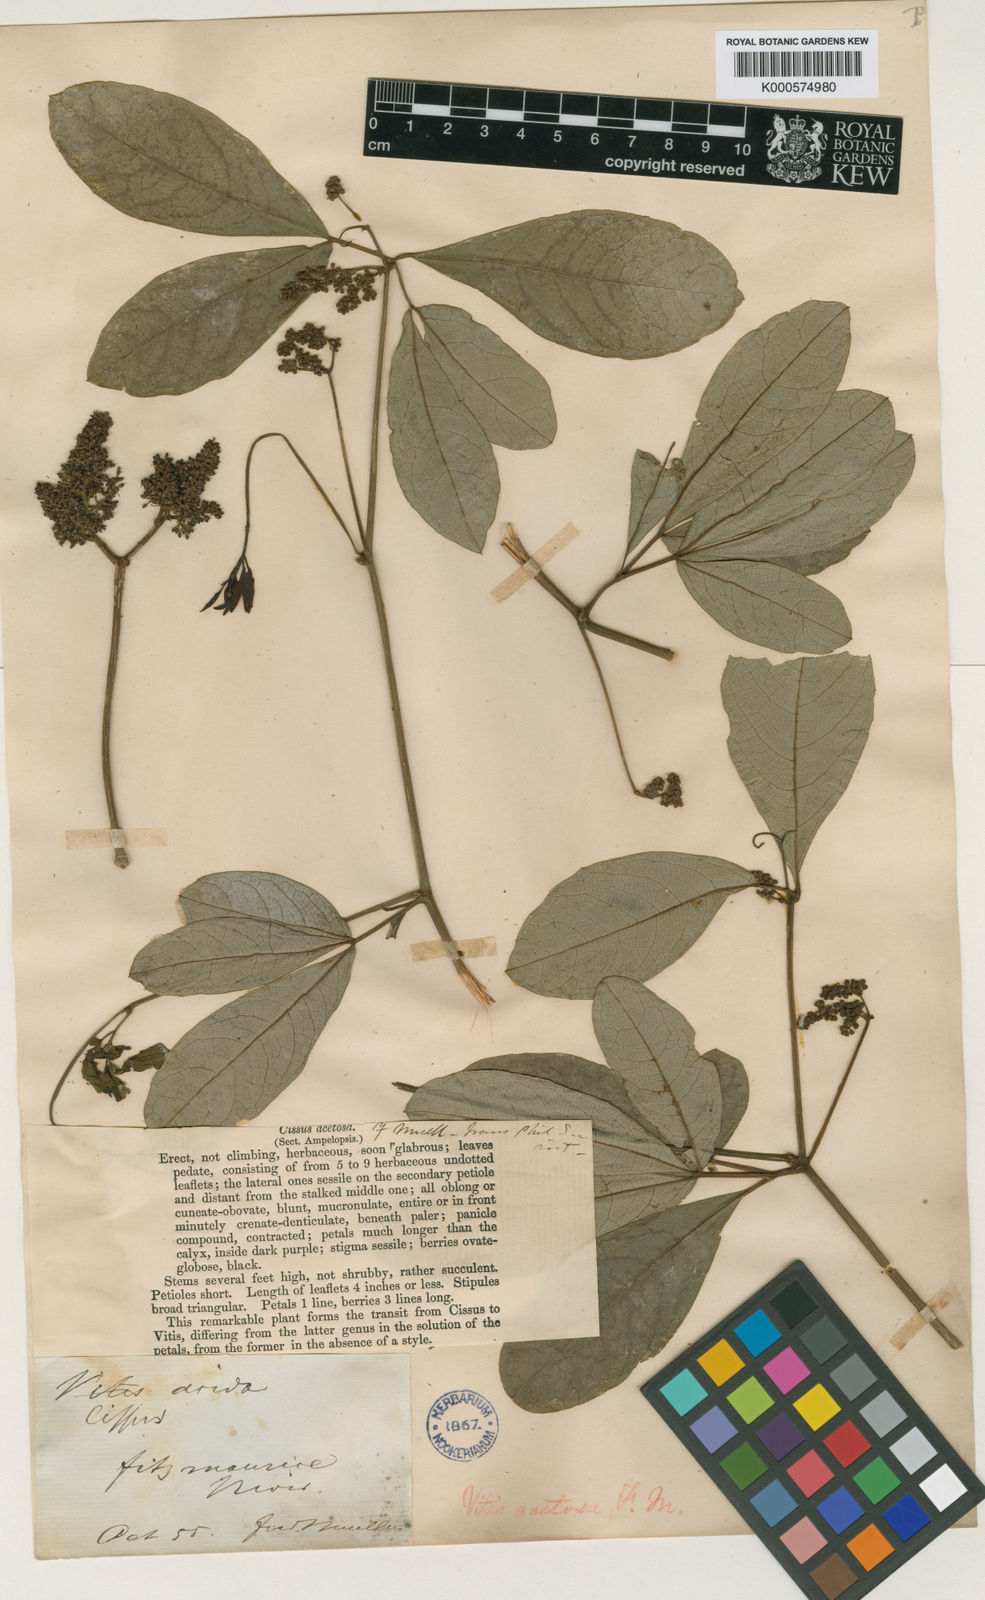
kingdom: Plantae
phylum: Tracheophyta
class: Magnoliopsida
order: Vitales
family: Vitaceae
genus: Ampelocissus
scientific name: Ampelocissus acetosa
